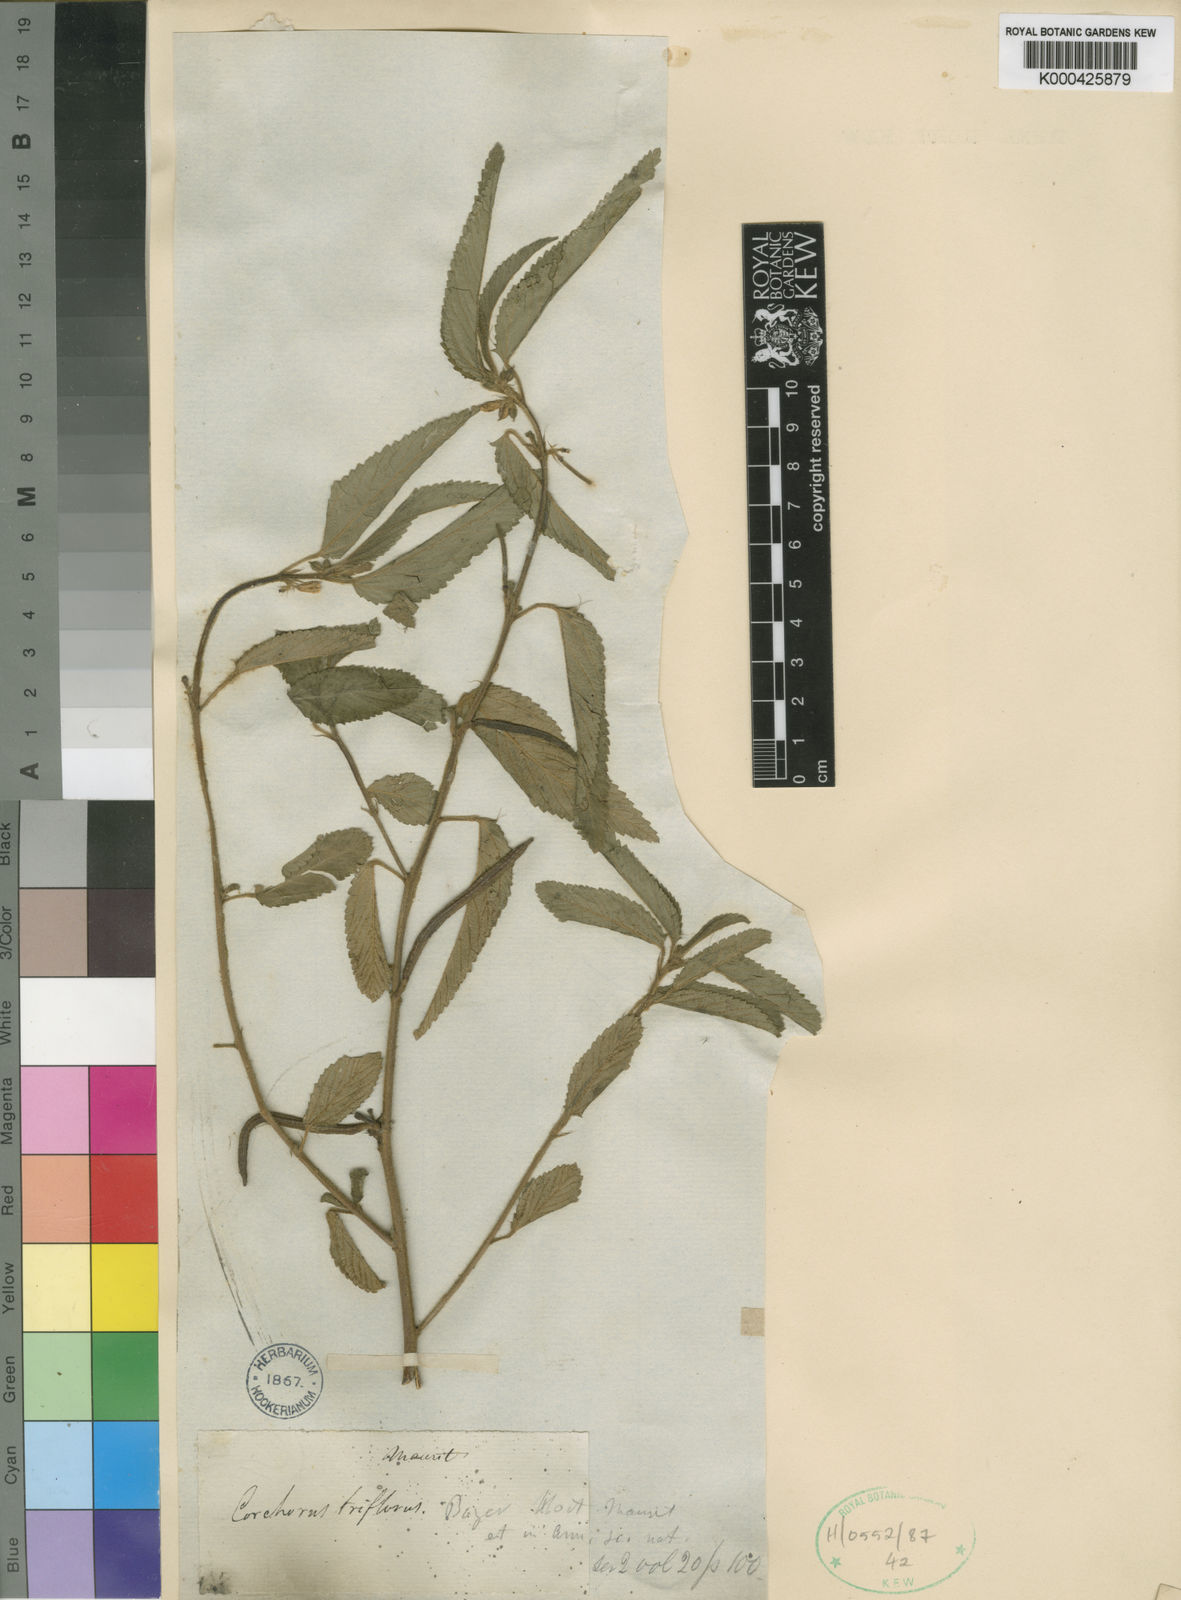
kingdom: Plantae
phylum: Tracheophyta
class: Magnoliopsida
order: Malvales
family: Malvaceae
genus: Corchorus
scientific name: Corchorus trilocularis
